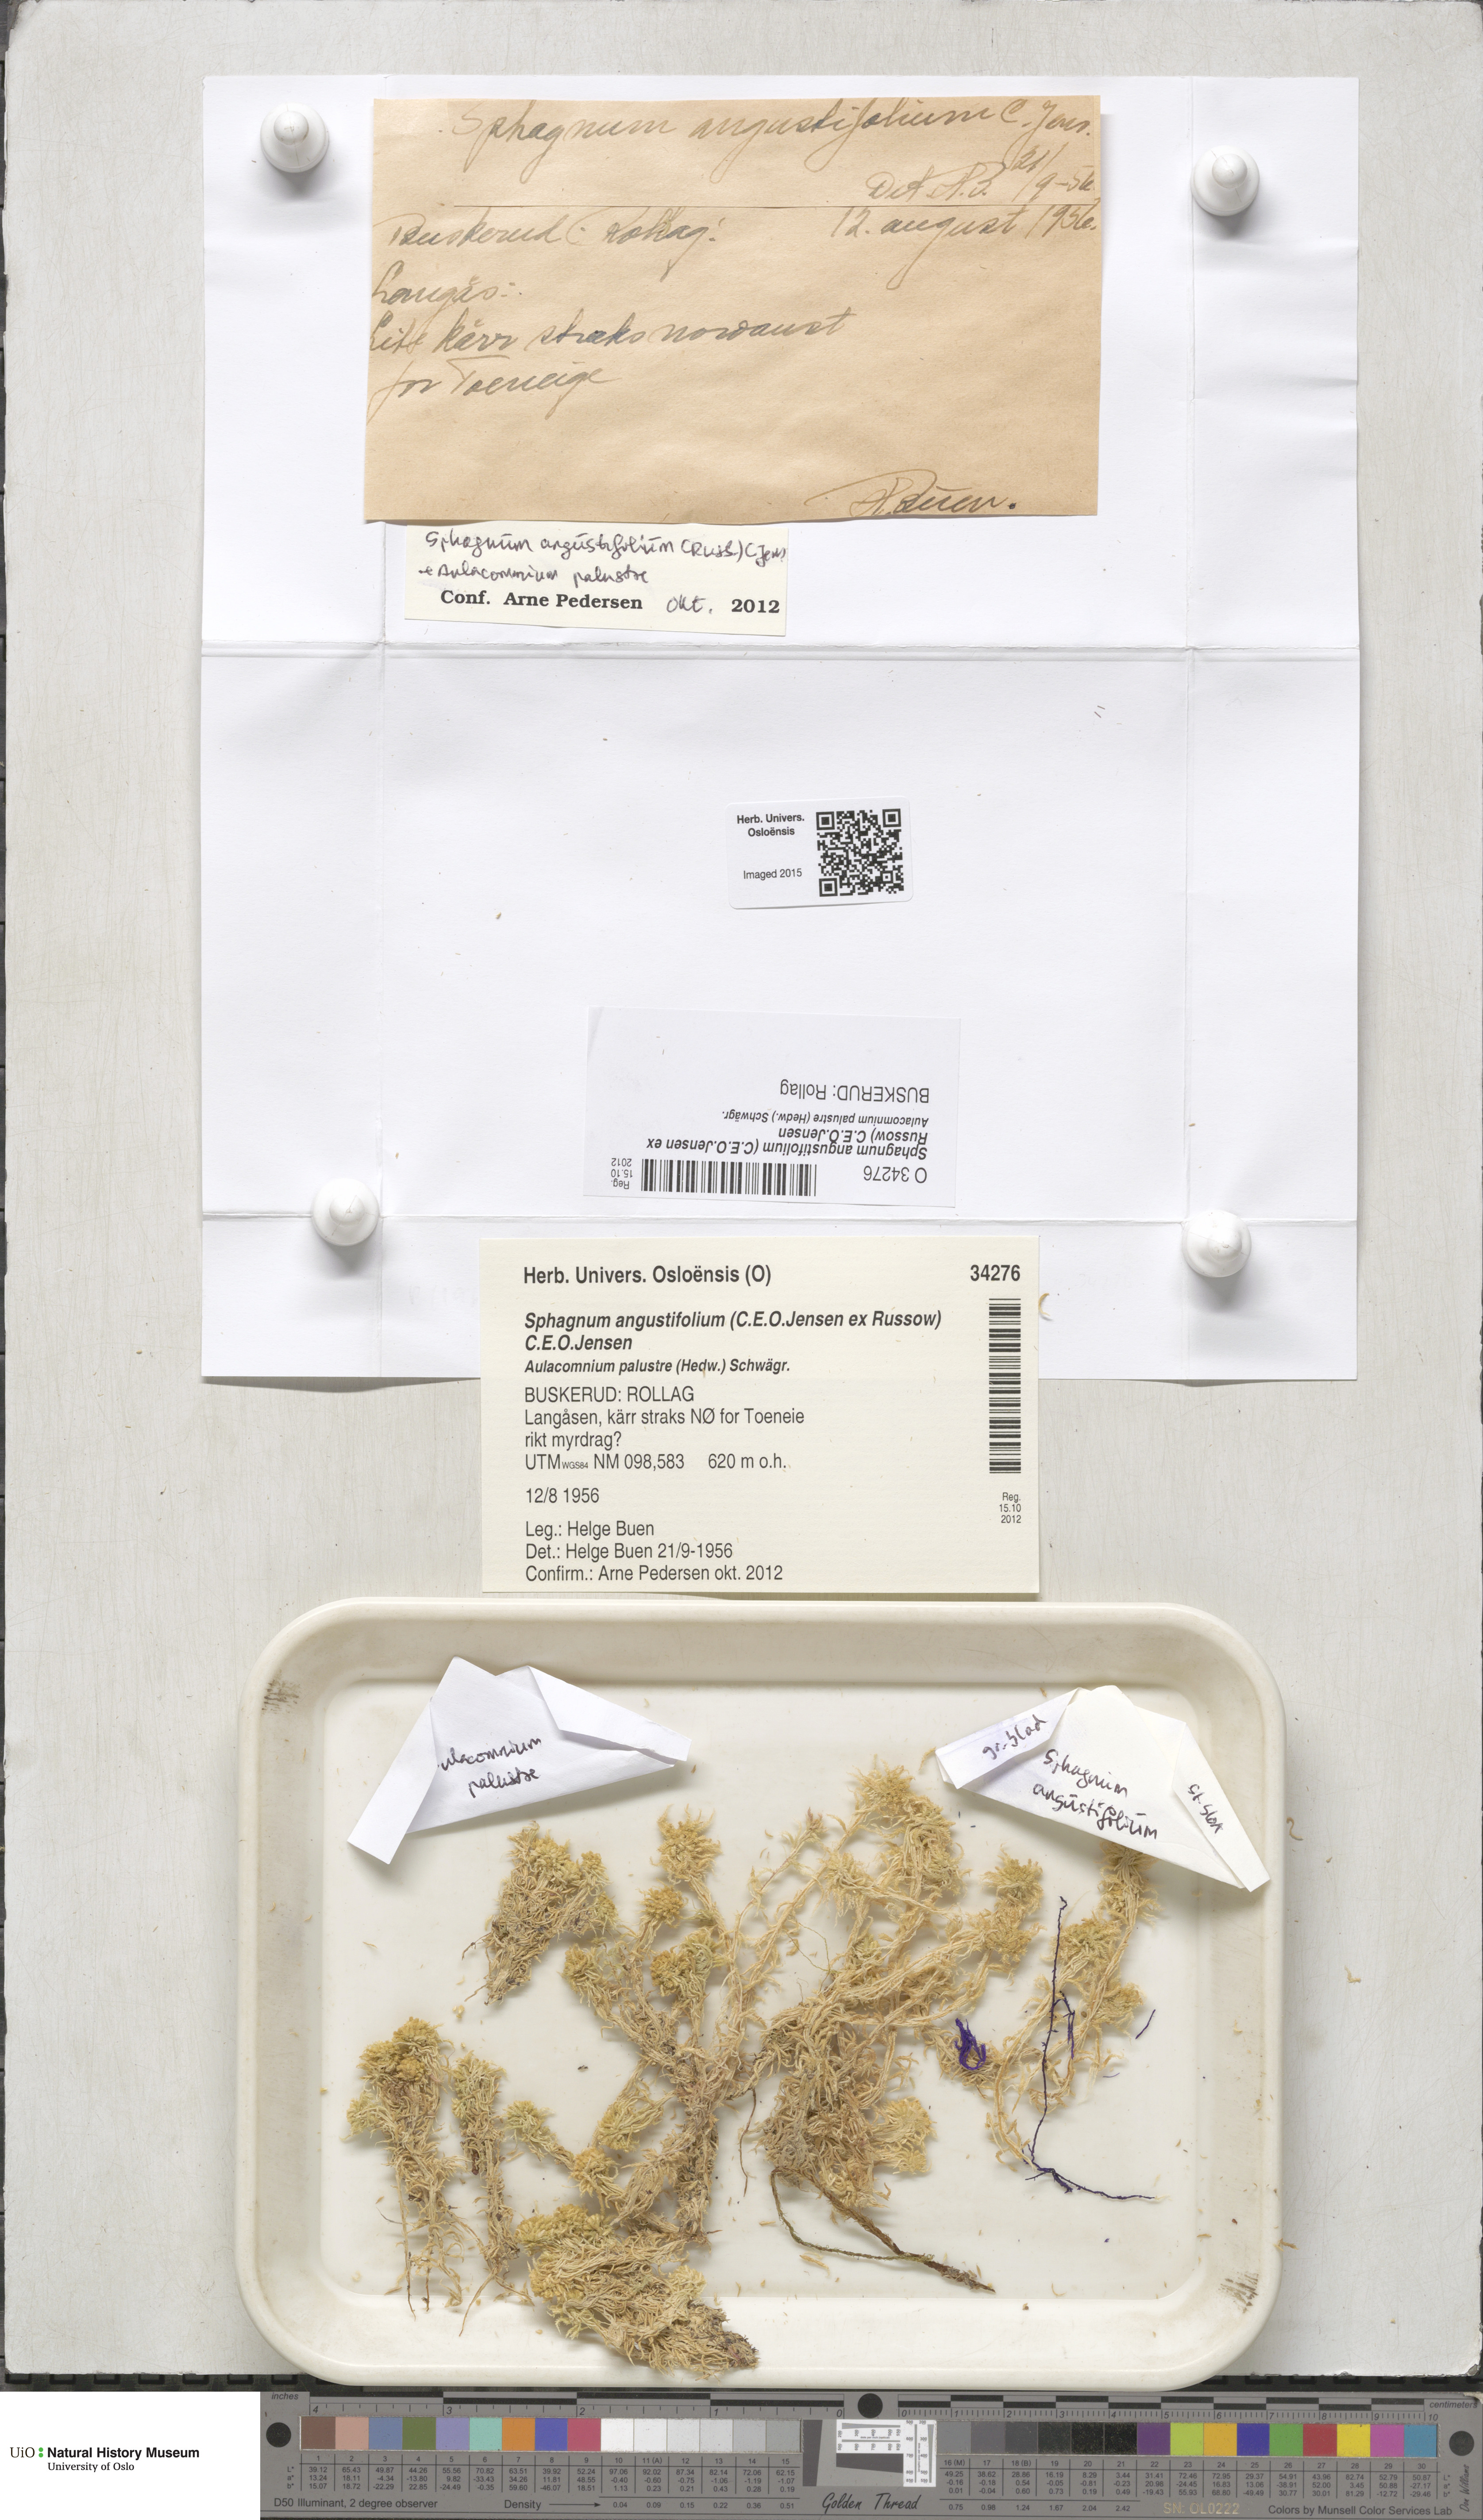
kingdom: Plantae
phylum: Bryophyta
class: Sphagnopsida
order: Sphagnales
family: Sphagnaceae
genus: Sphagnum
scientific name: Sphagnum angustifolium
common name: Narrow-leaved peat moss
